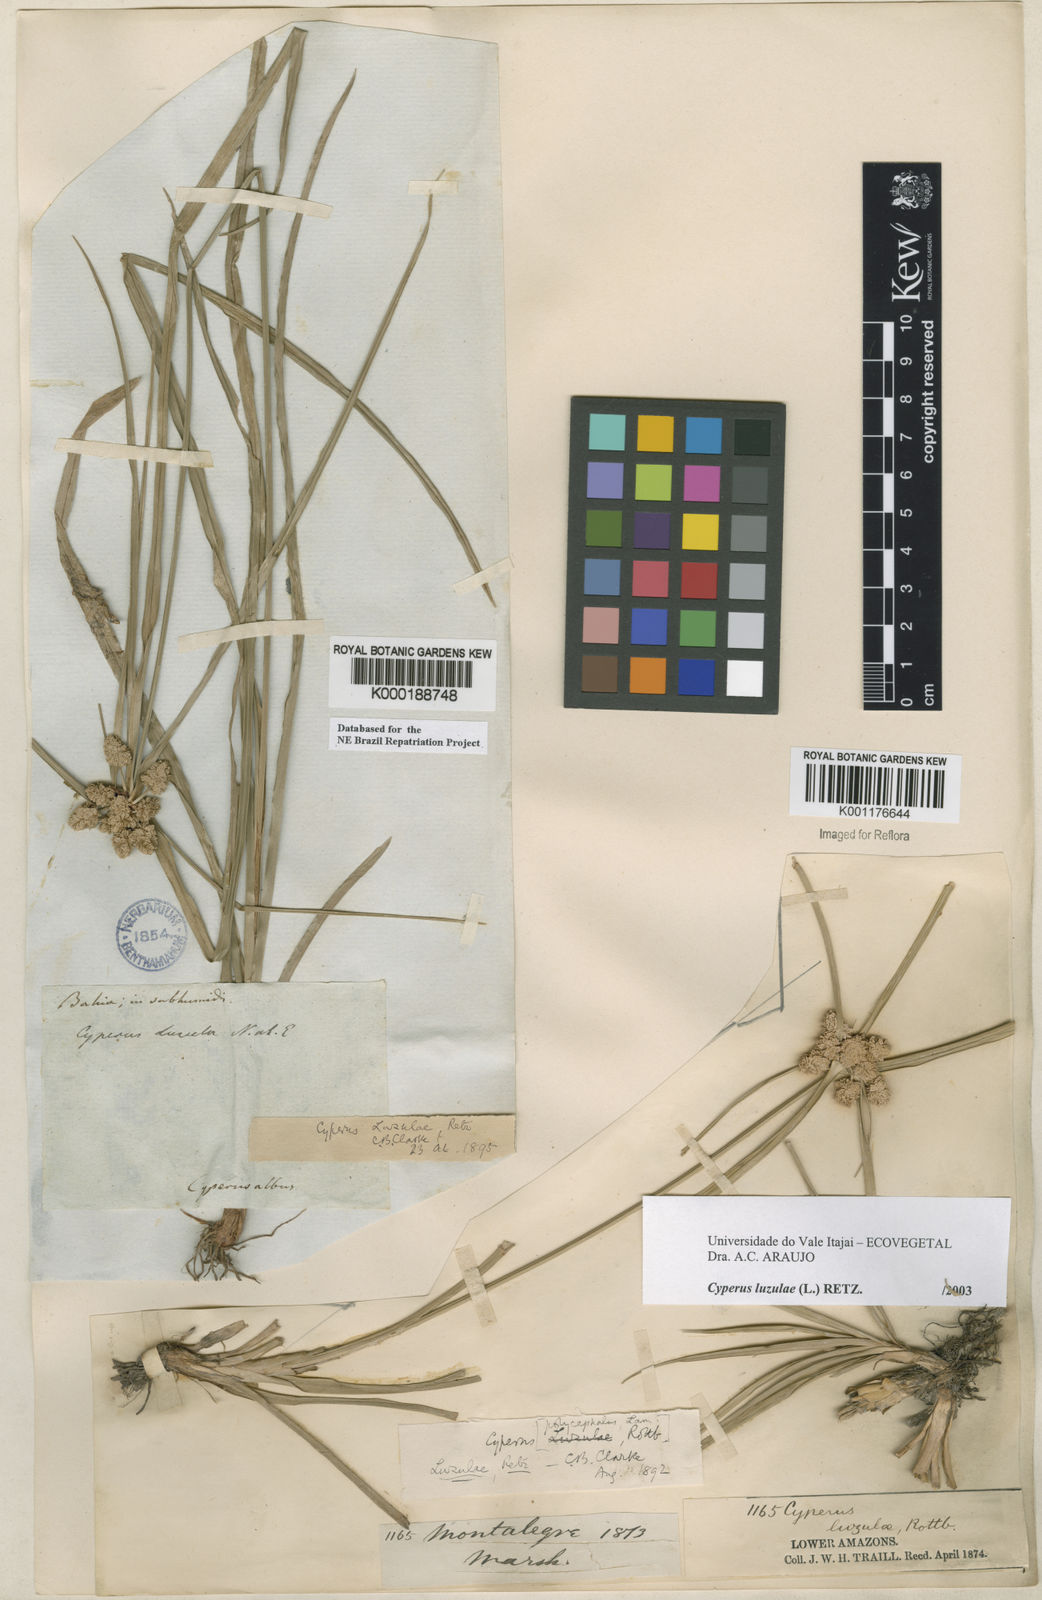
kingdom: Plantae
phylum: Tracheophyta
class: Liliopsida
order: Poales
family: Cyperaceae
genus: Cyperus
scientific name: Cyperus luzulae
